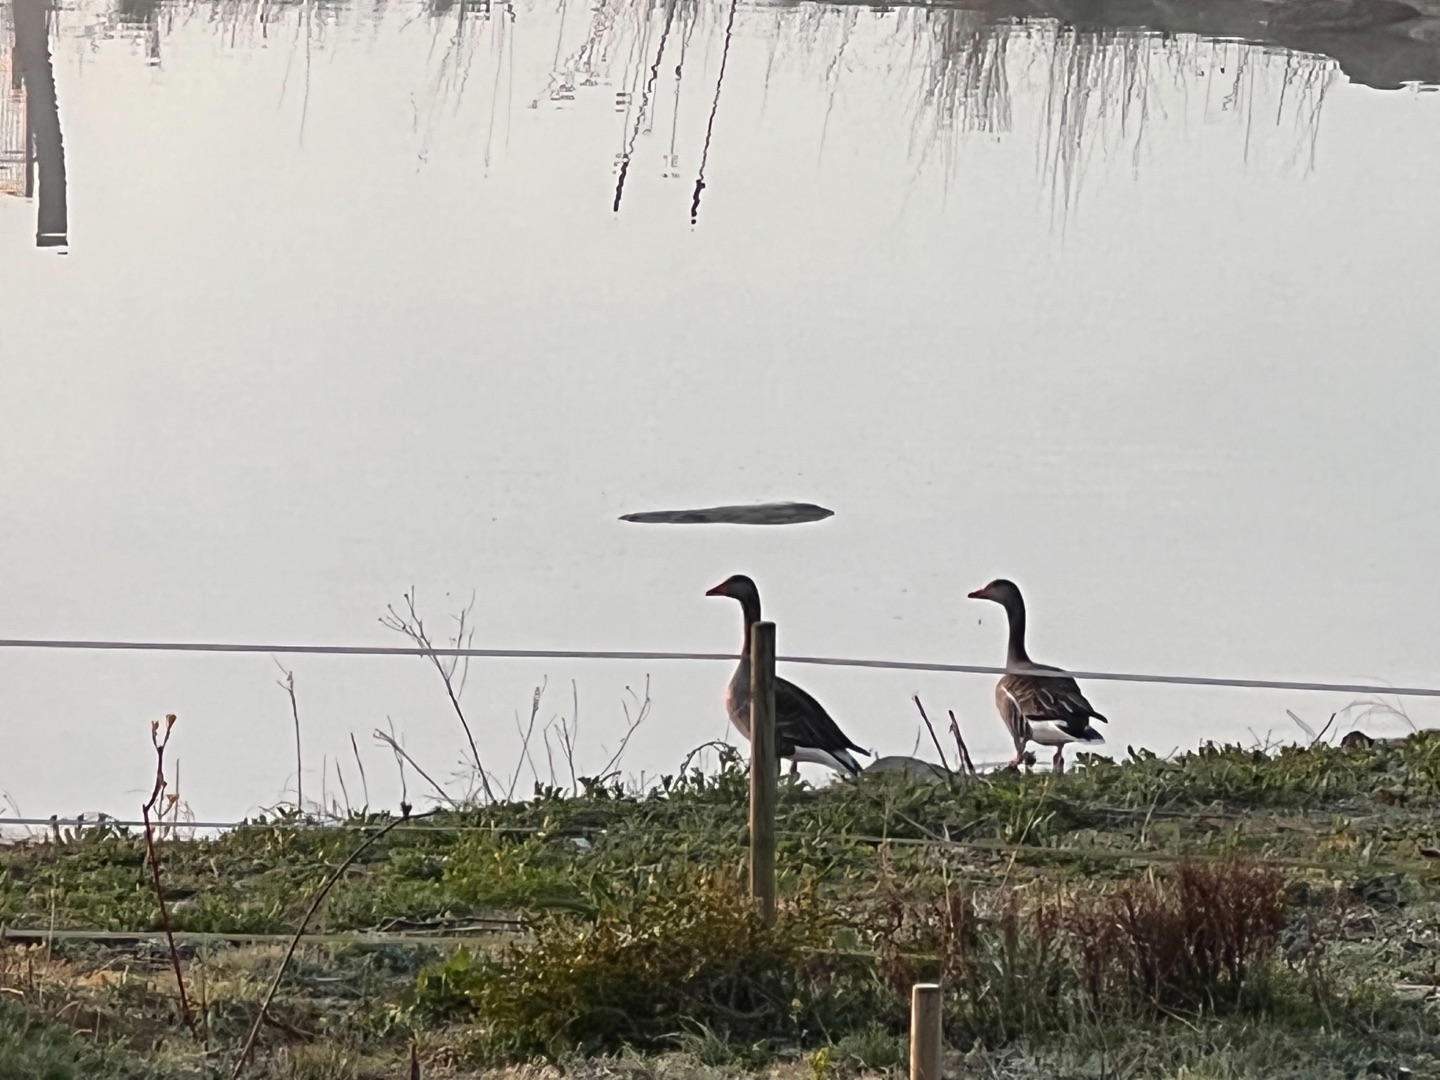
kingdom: Animalia
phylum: Chordata
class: Aves
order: Anseriformes
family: Anatidae
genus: Anser
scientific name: Anser anser
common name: Grågås
